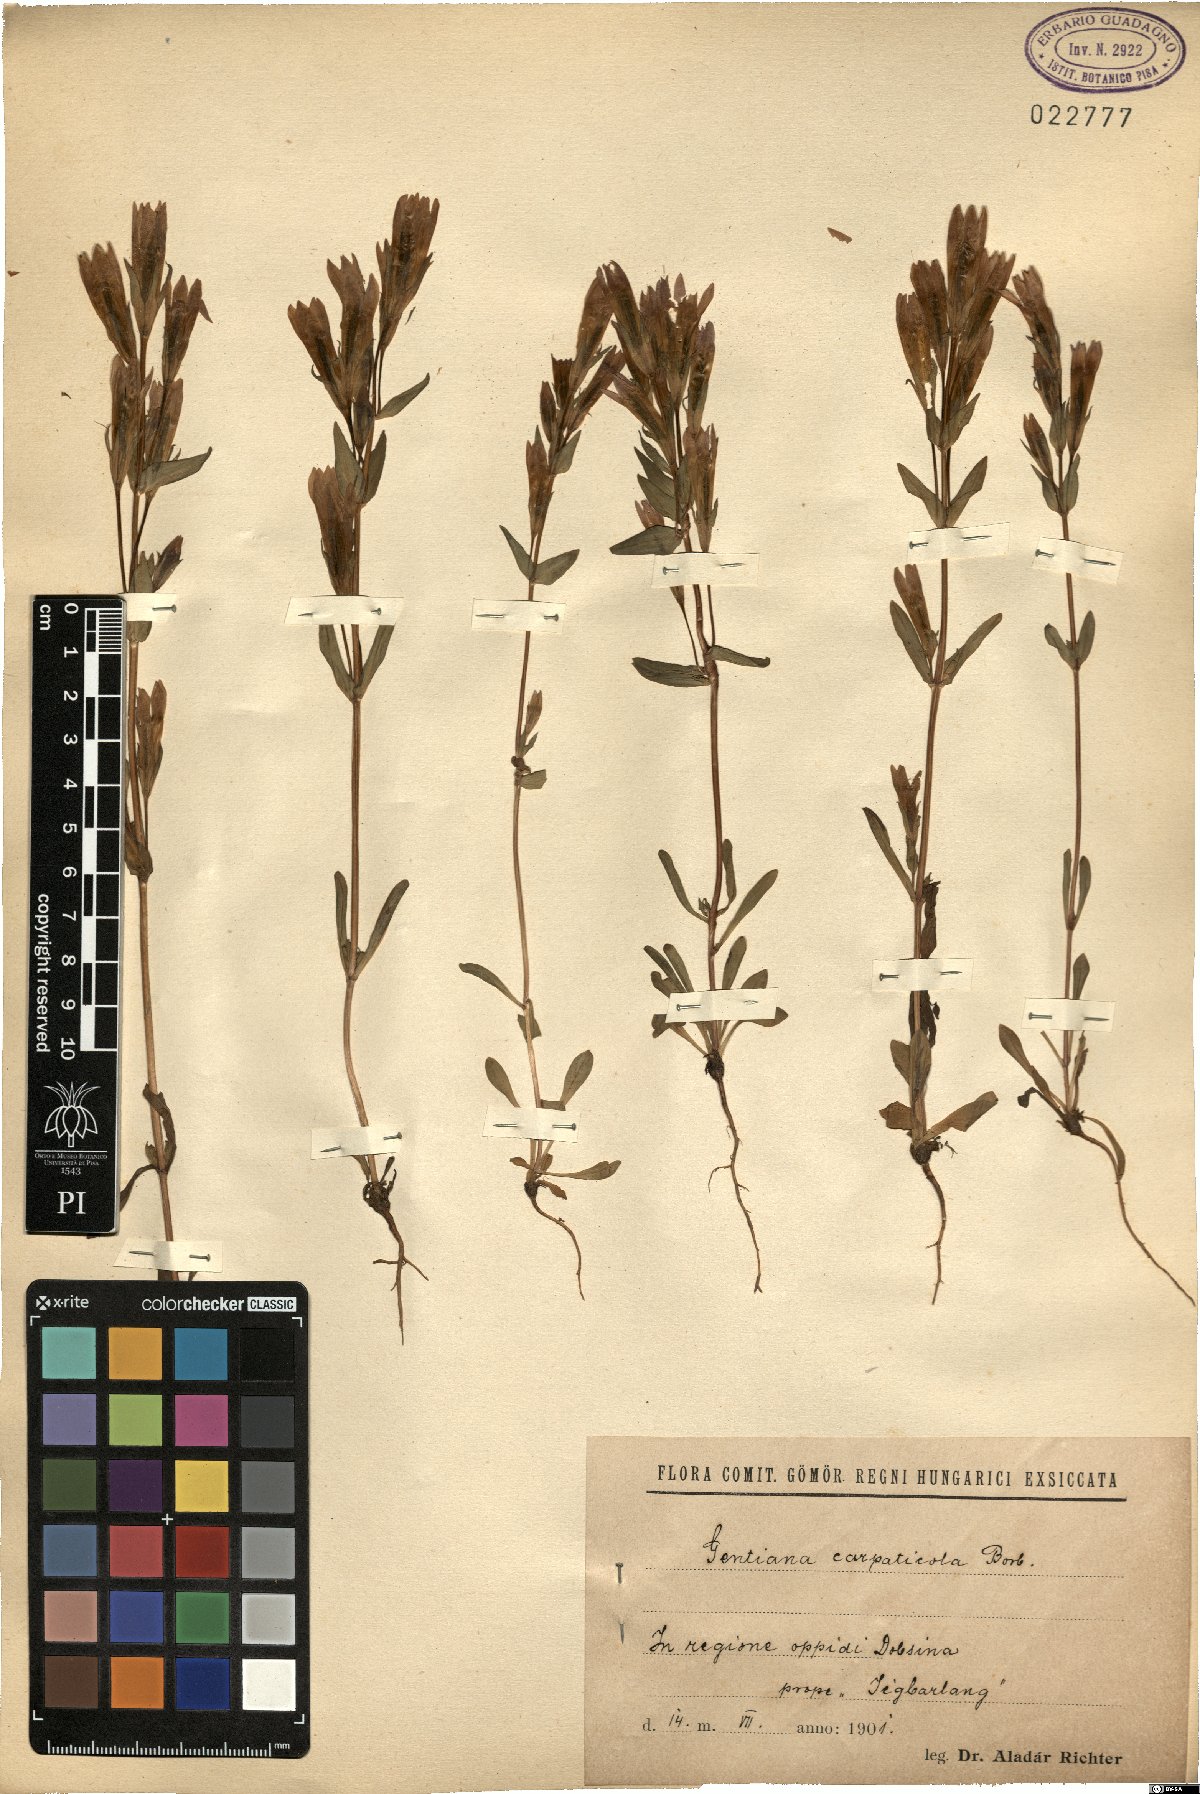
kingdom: Plantae
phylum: Tracheophyta
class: Magnoliopsida
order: Gentianales
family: Gentianaceae
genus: Gentianella
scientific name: Gentianella austriaca
